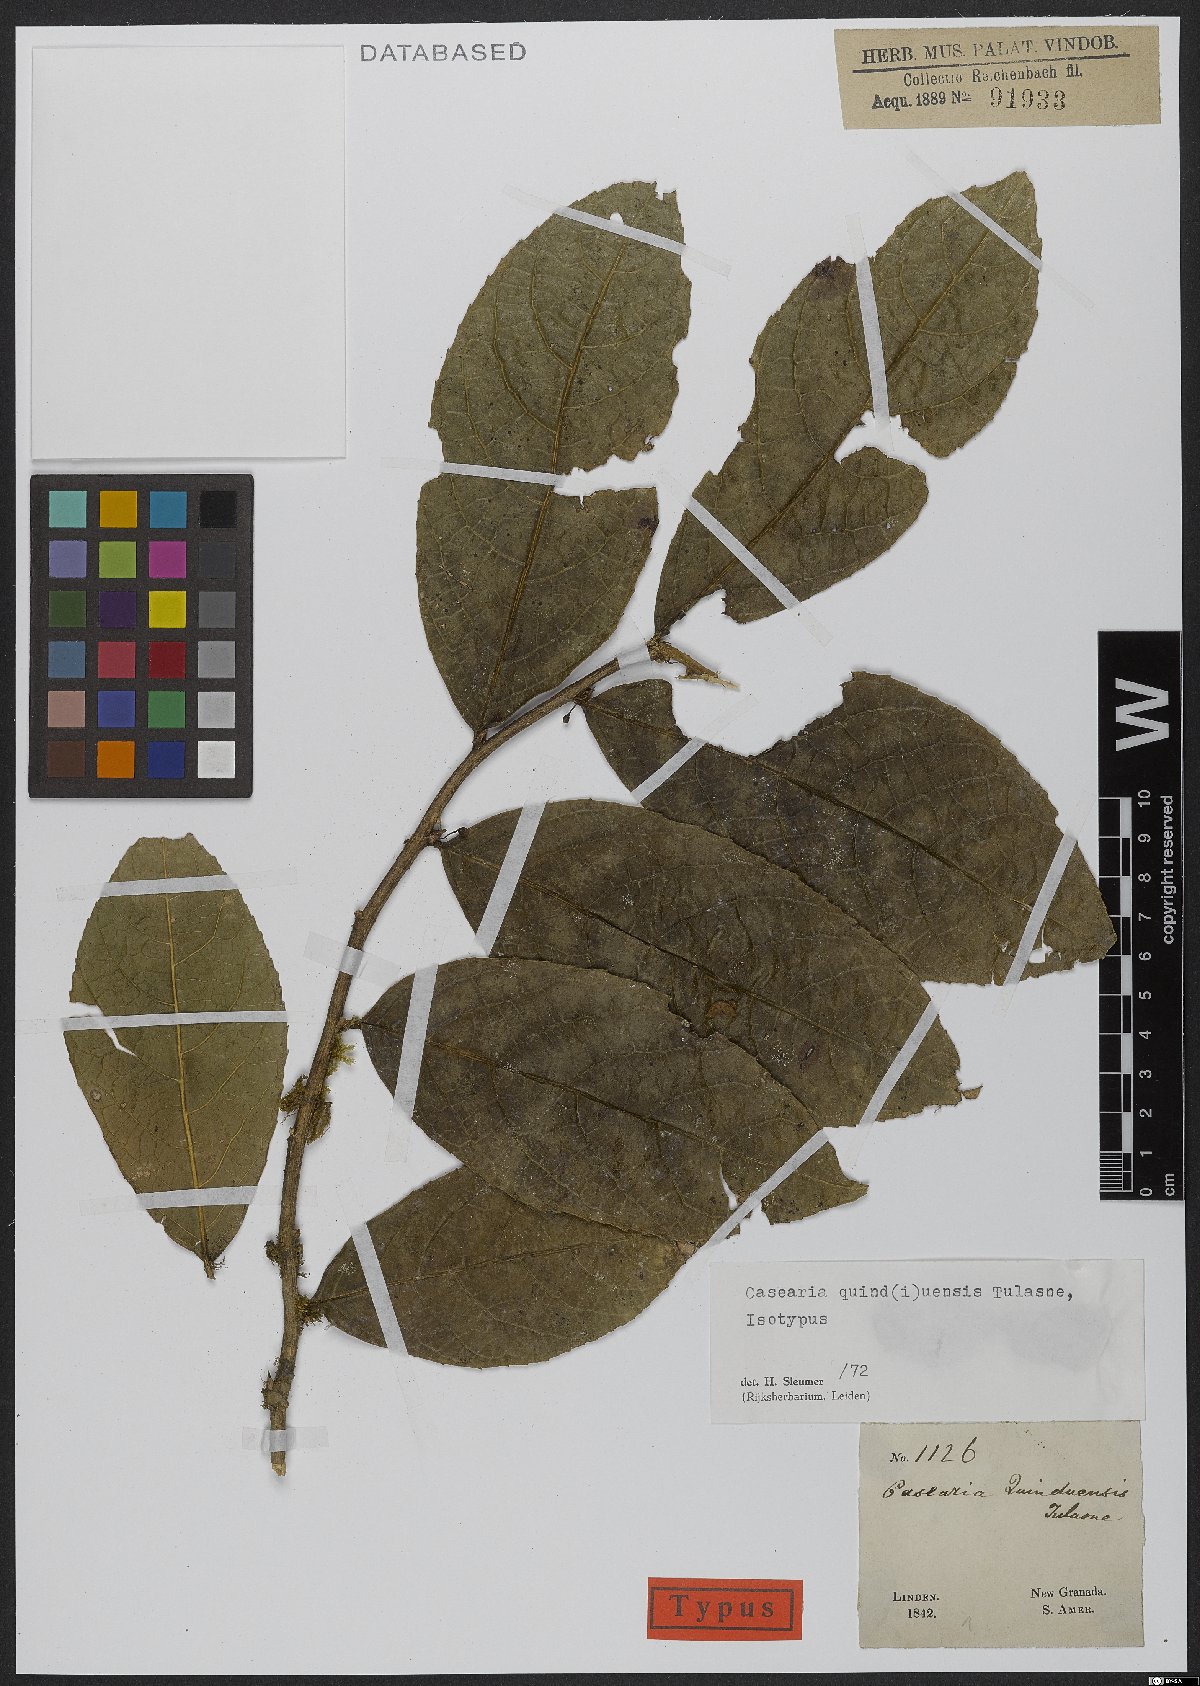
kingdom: Plantae
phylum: Tracheophyta
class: Magnoliopsida
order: Malpighiales
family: Salicaceae
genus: Casearia
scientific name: Casearia quinduensis
